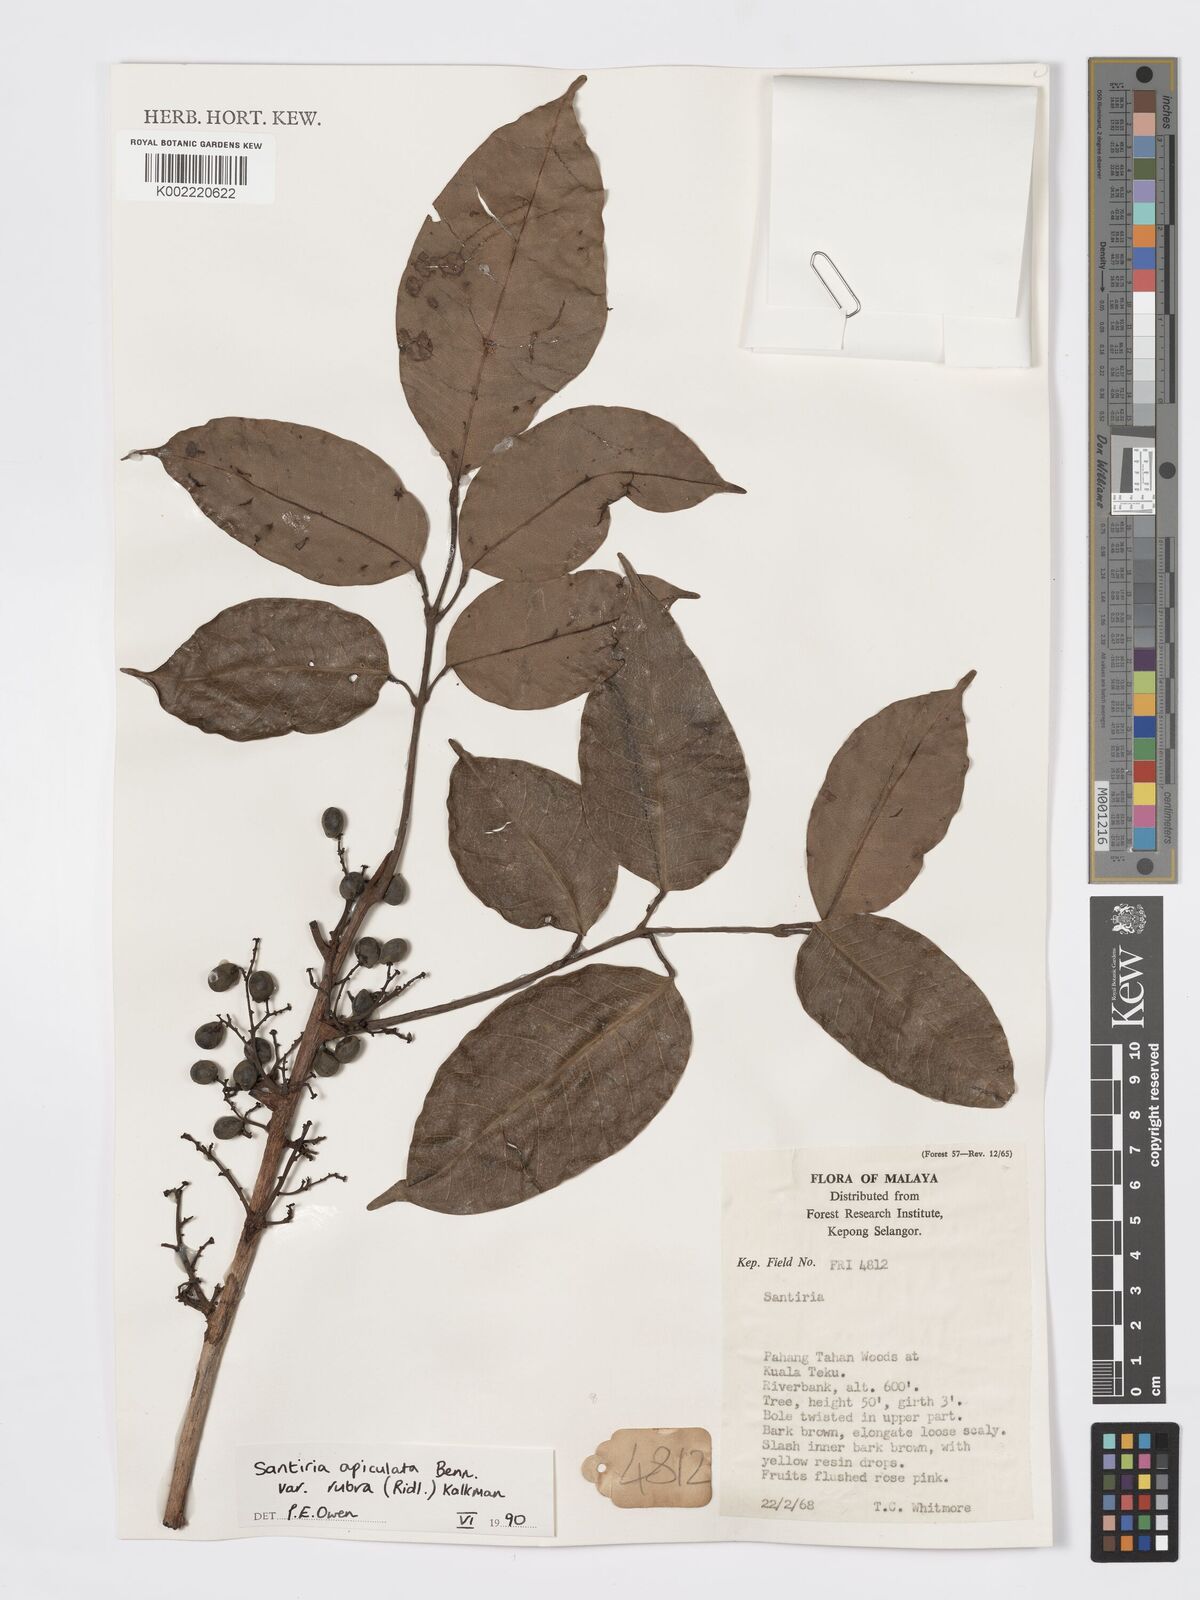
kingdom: Plantae
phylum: Tracheophyta
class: Magnoliopsida
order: Sapindales
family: Burseraceae
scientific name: Burseraceae
